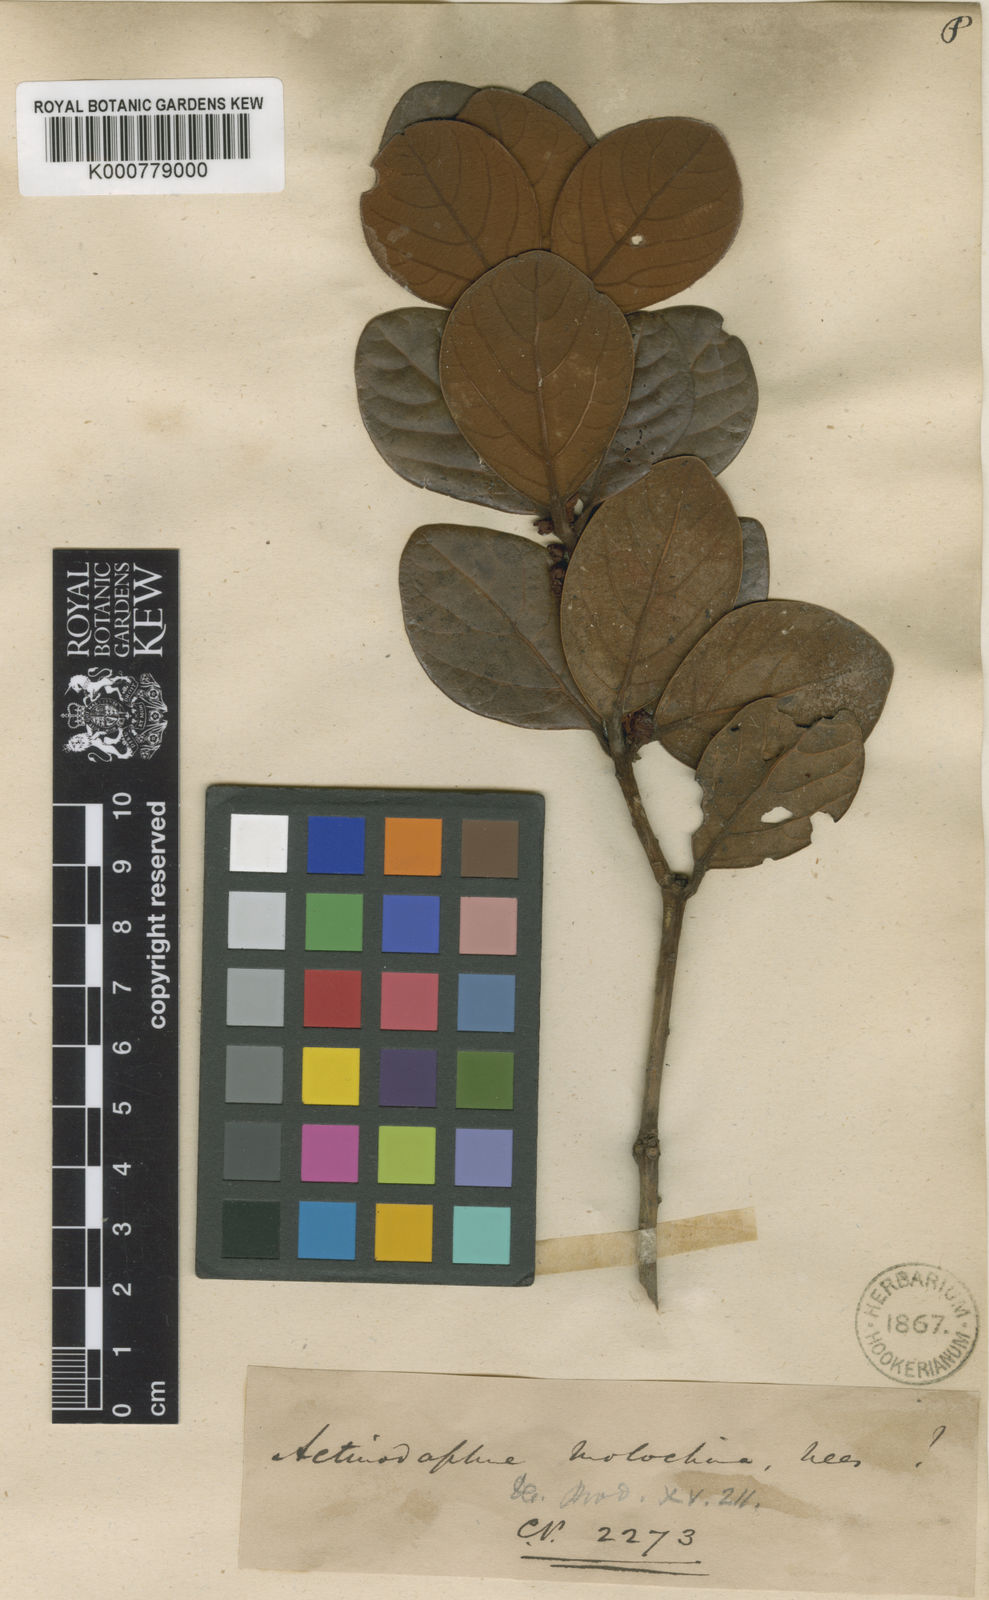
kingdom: Plantae
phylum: Tracheophyta
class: Magnoliopsida
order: Laurales
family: Lauraceae
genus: Actinodaphne
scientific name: Actinodaphne molochina
